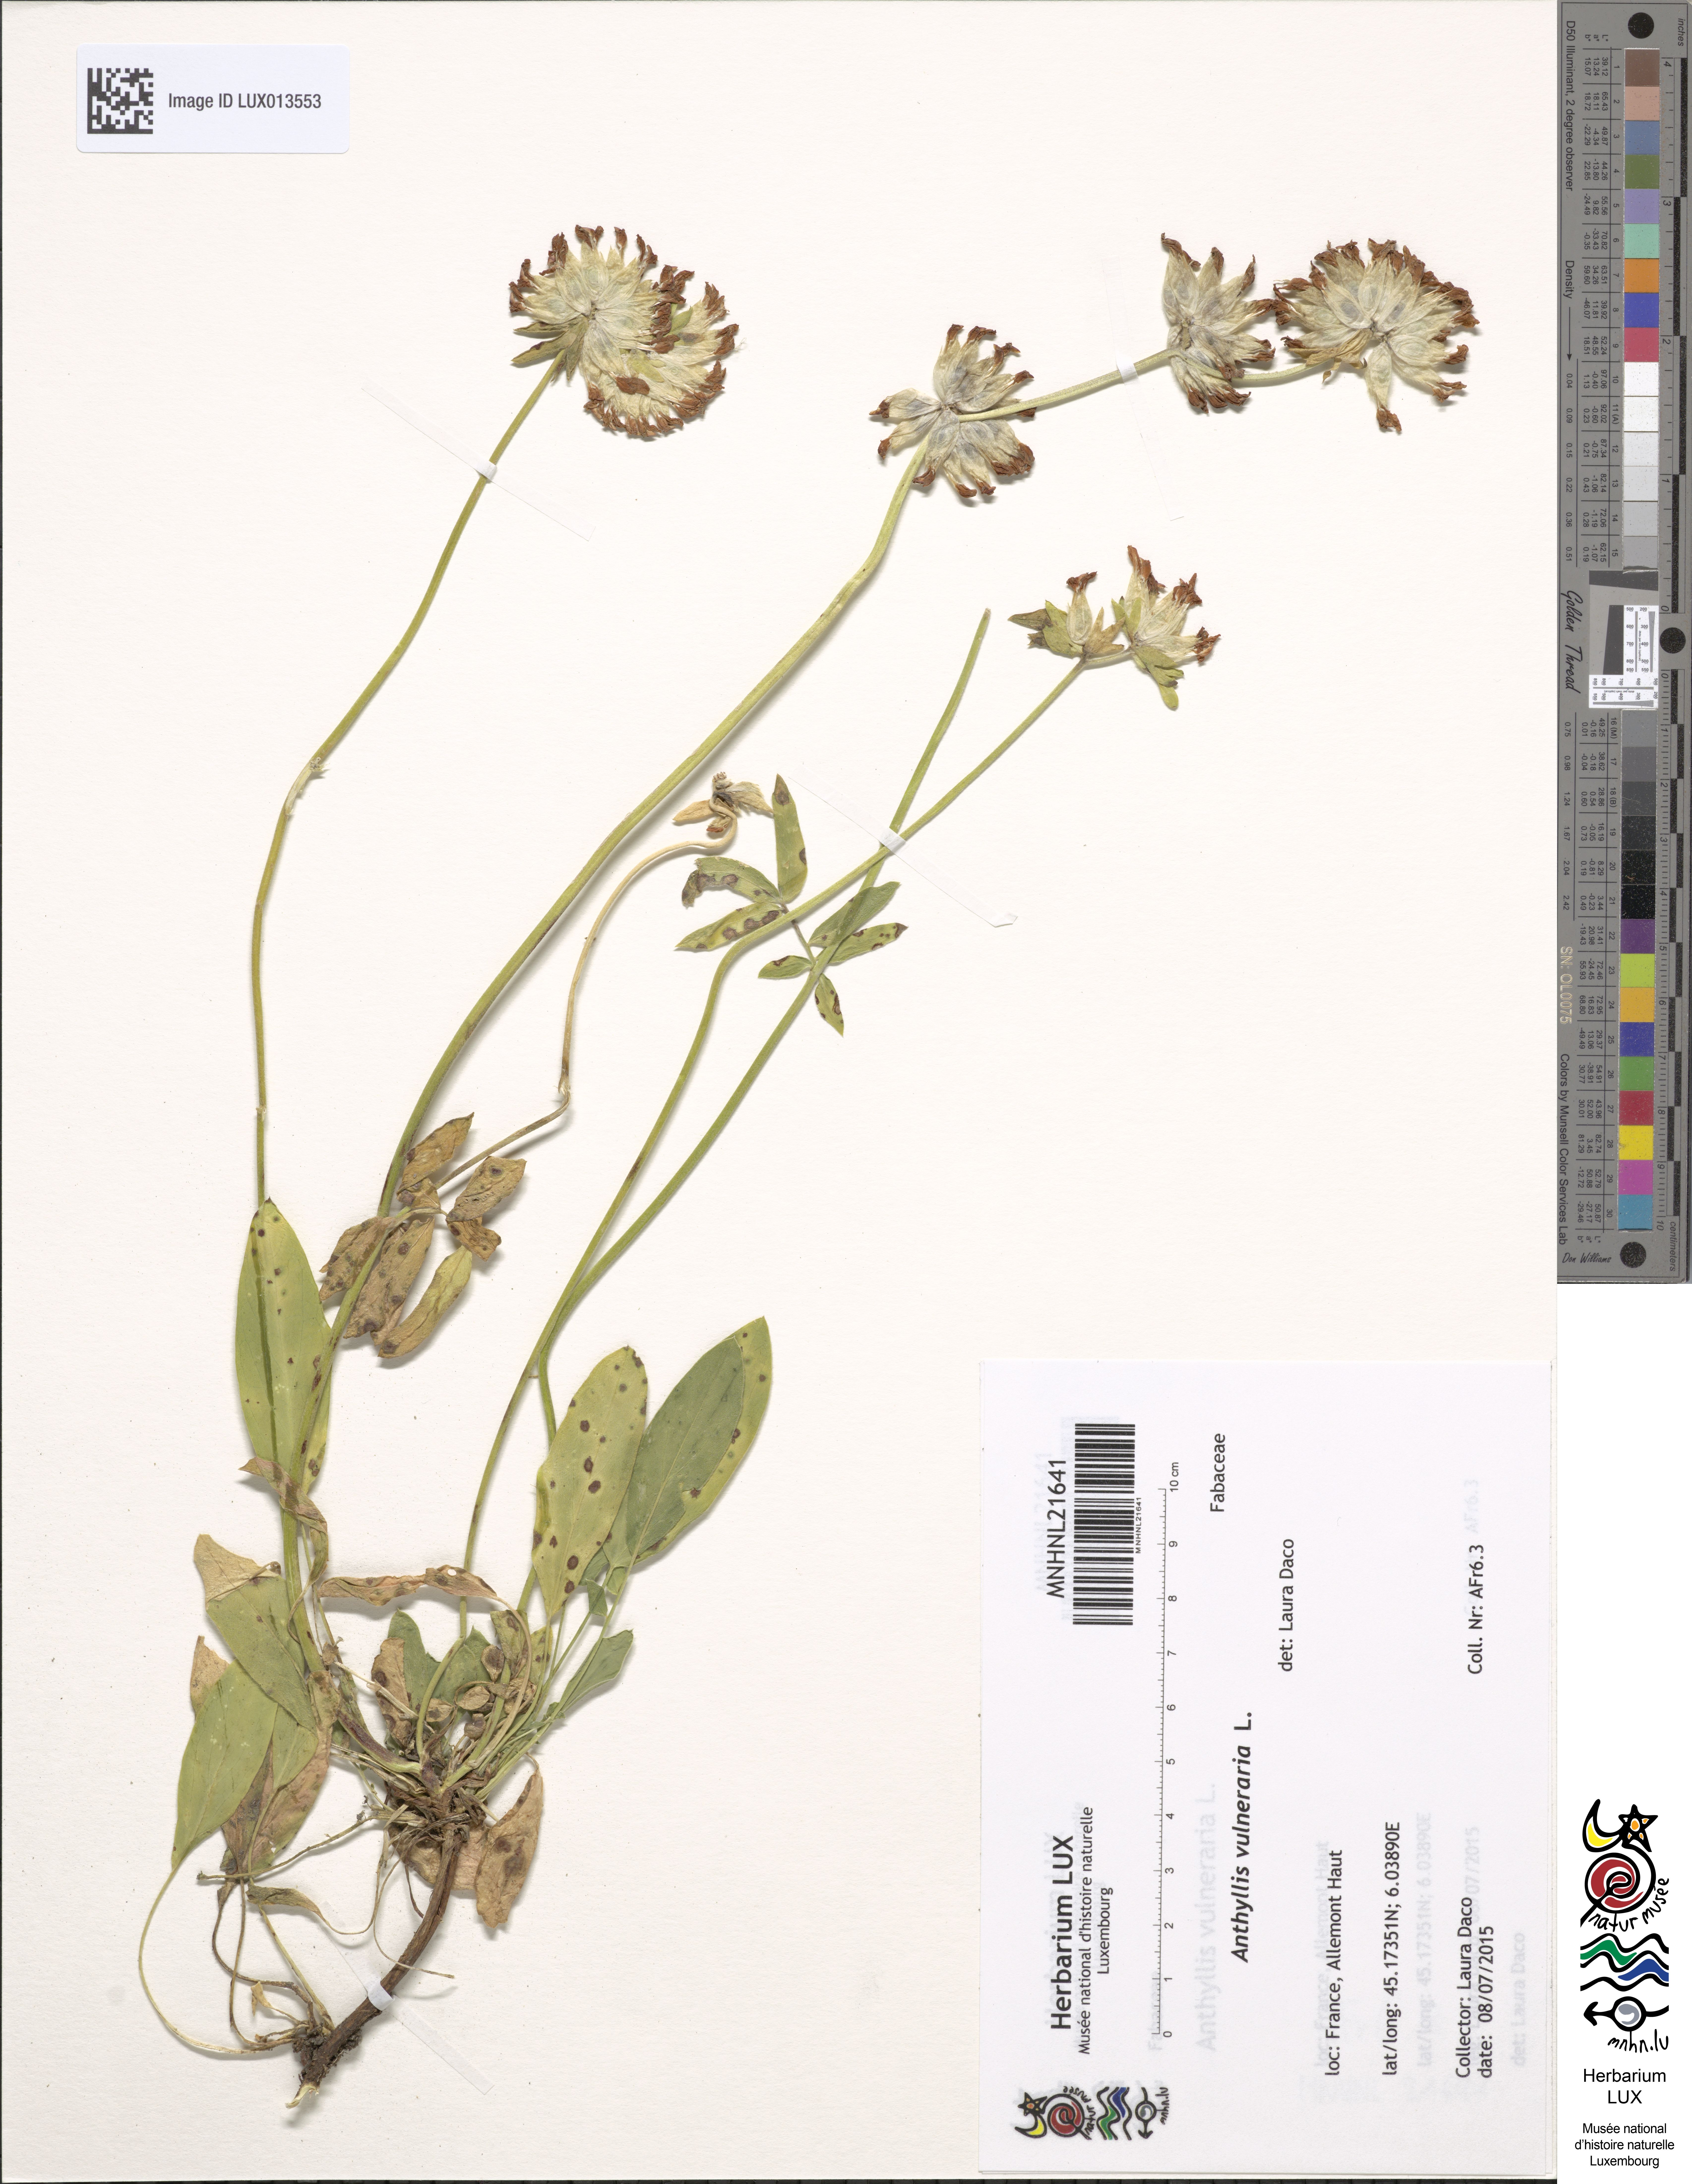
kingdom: Plantae
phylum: Tracheophyta
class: Magnoliopsida
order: Fabales
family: Fabaceae
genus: Anthyllis
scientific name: Anthyllis vulneraria
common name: Kidney vetch
